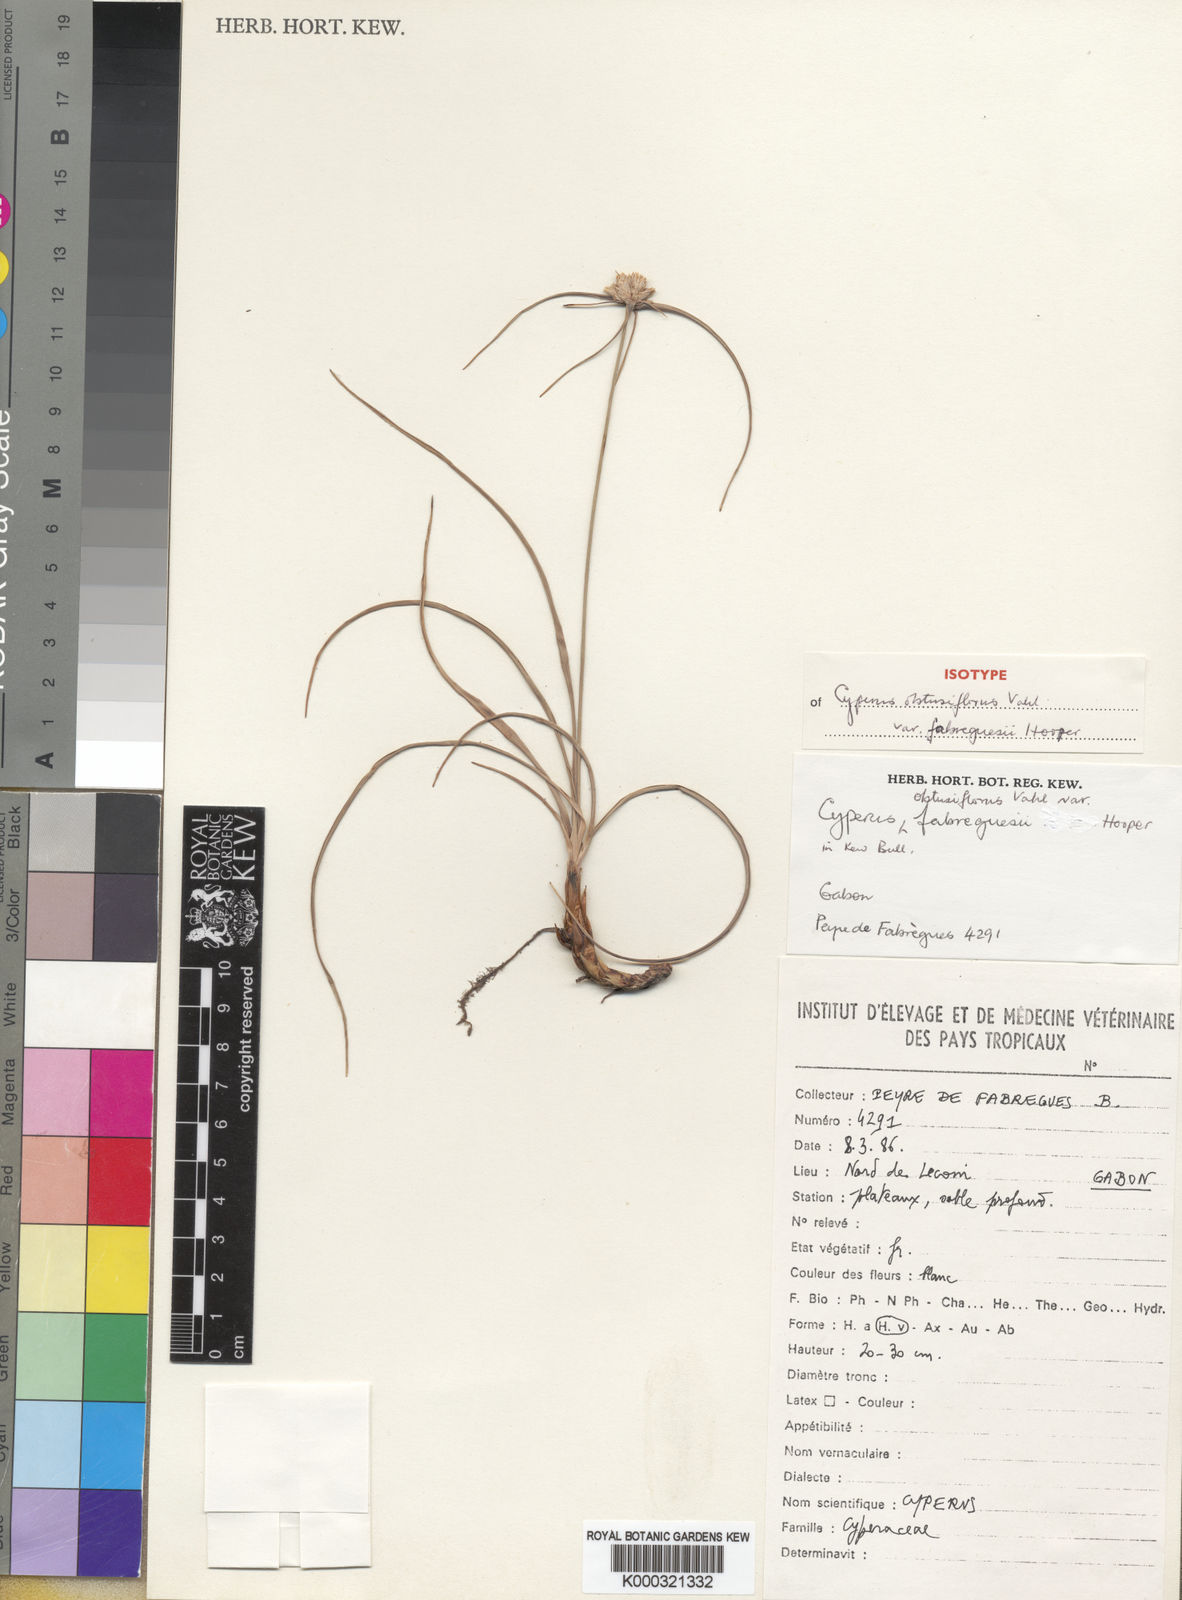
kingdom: Plantae
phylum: Tracheophyta
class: Liliopsida
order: Poales
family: Cyperaceae
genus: Cyperus
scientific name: Cyperus niveus
